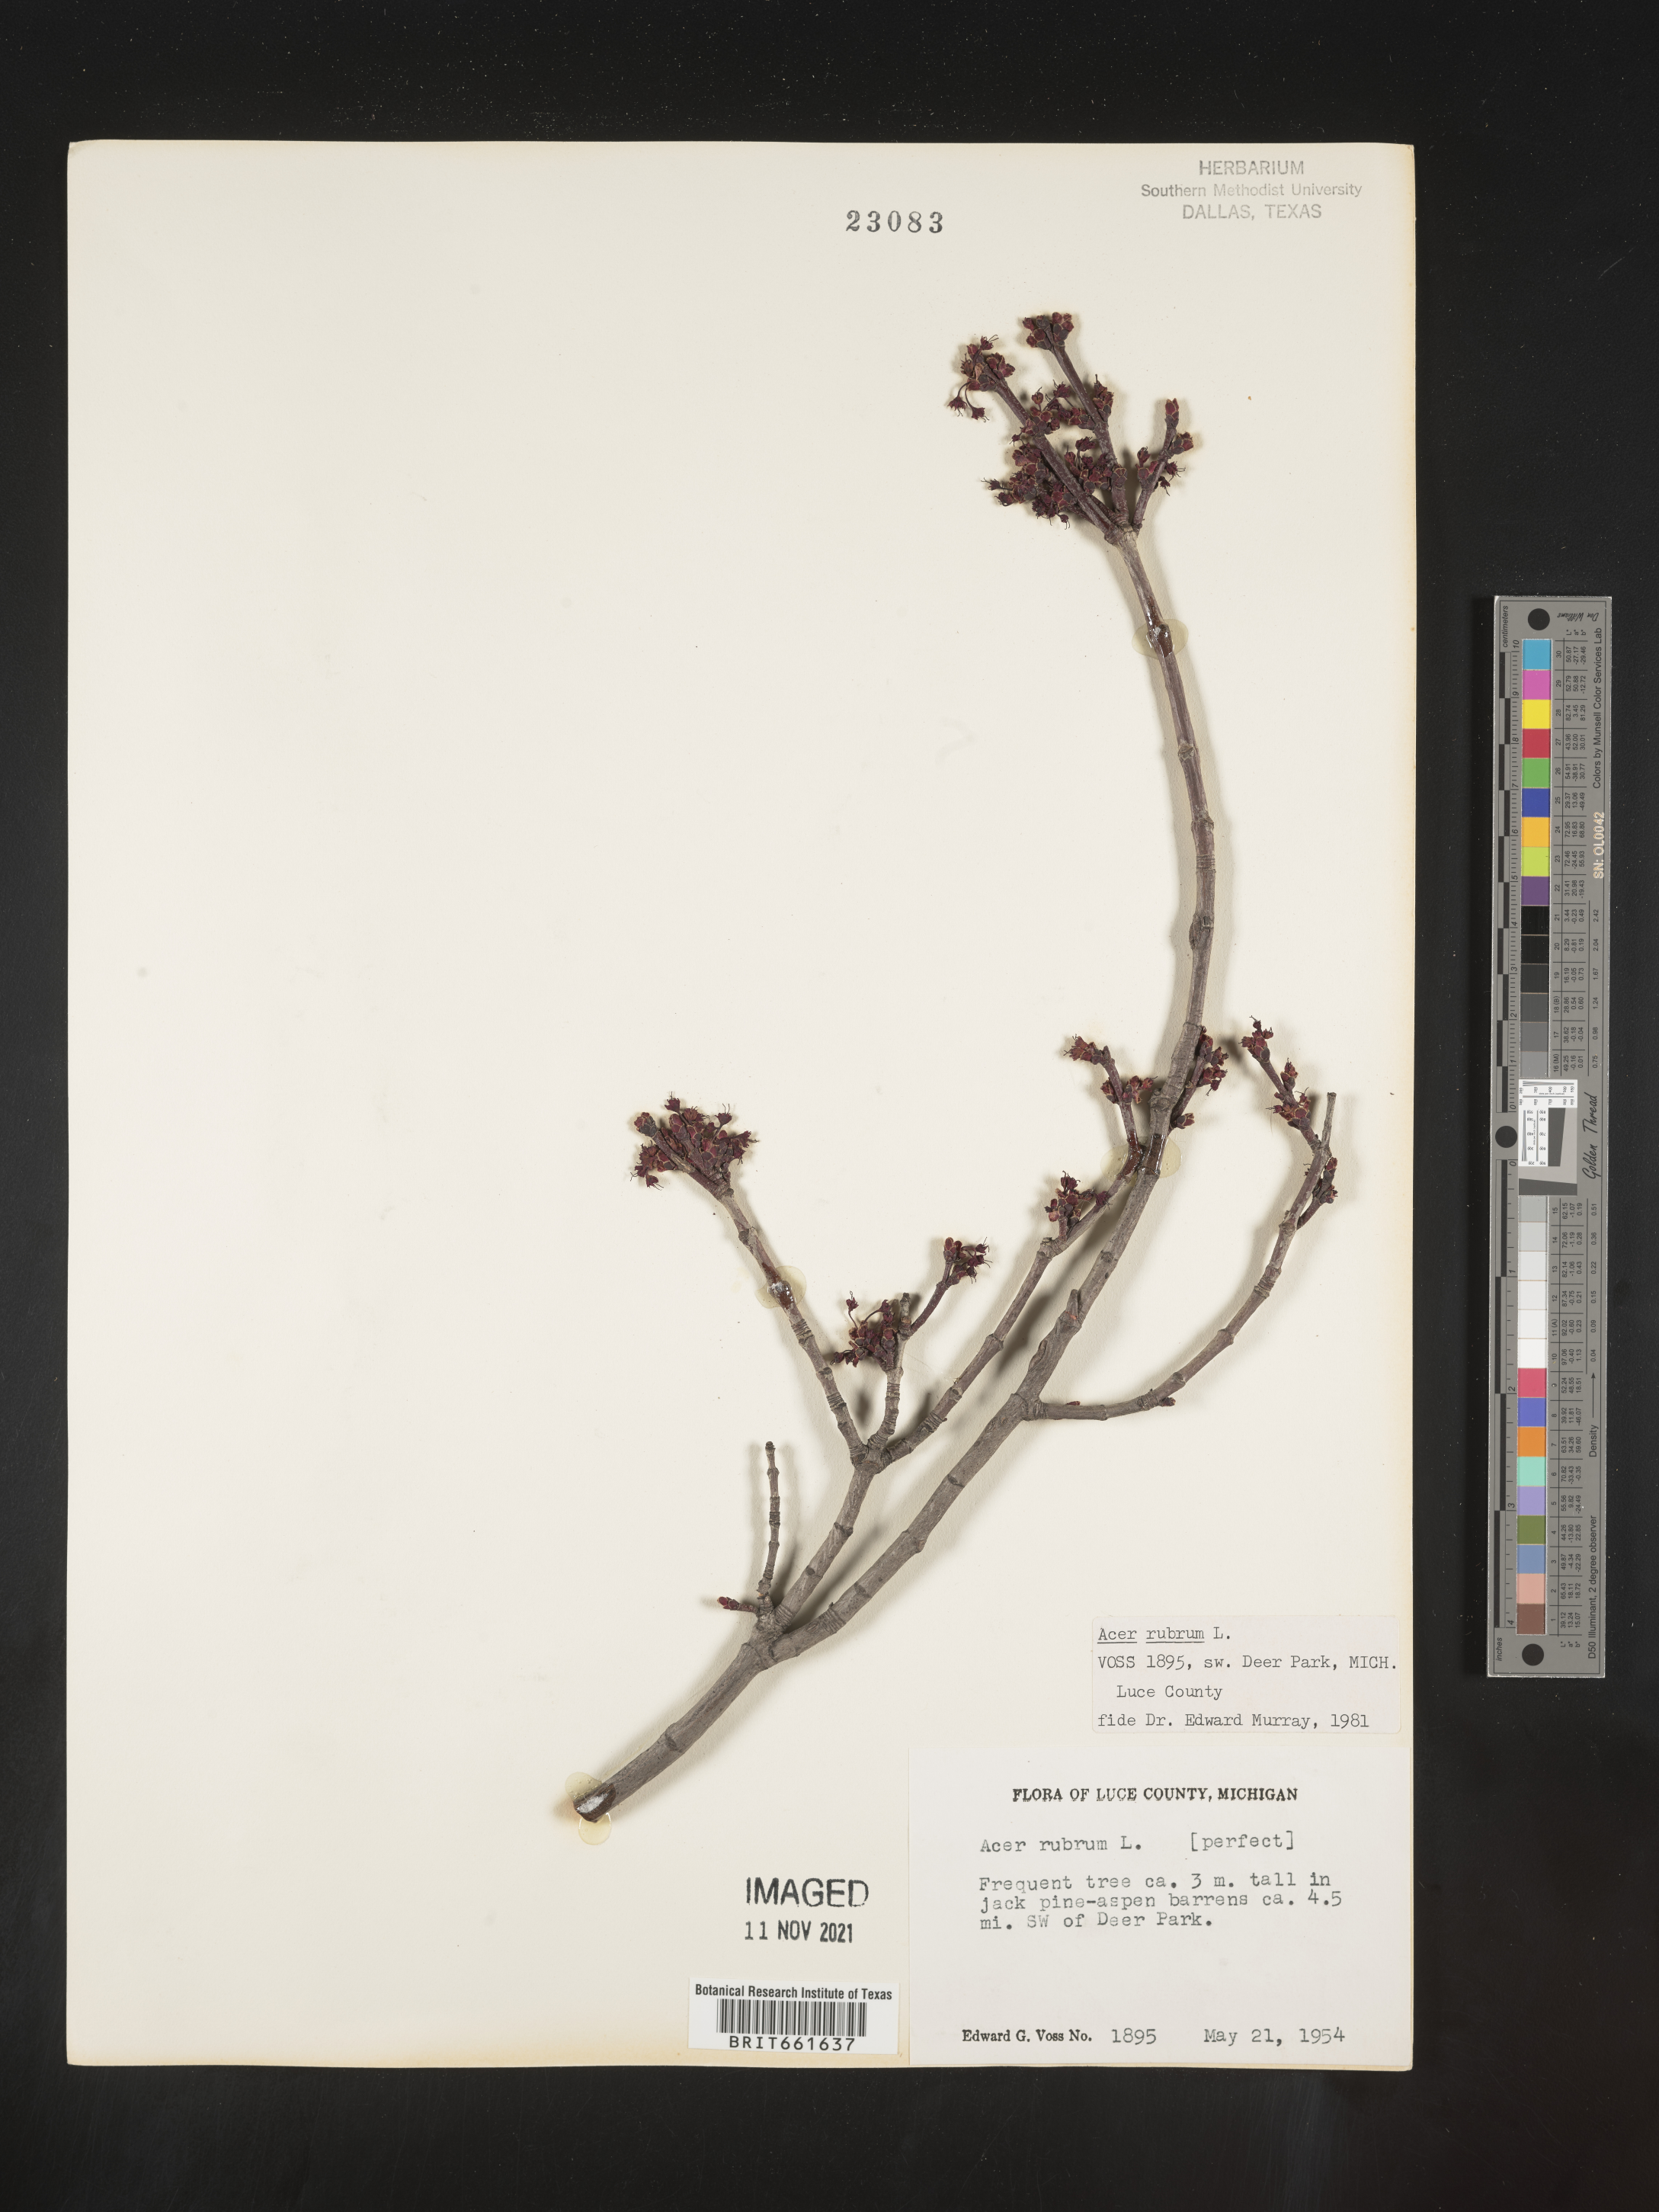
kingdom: Plantae
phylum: Tracheophyta
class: Magnoliopsida
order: Sapindales
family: Sapindaceae
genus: Acer
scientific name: Acer rubrum
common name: Red maple
